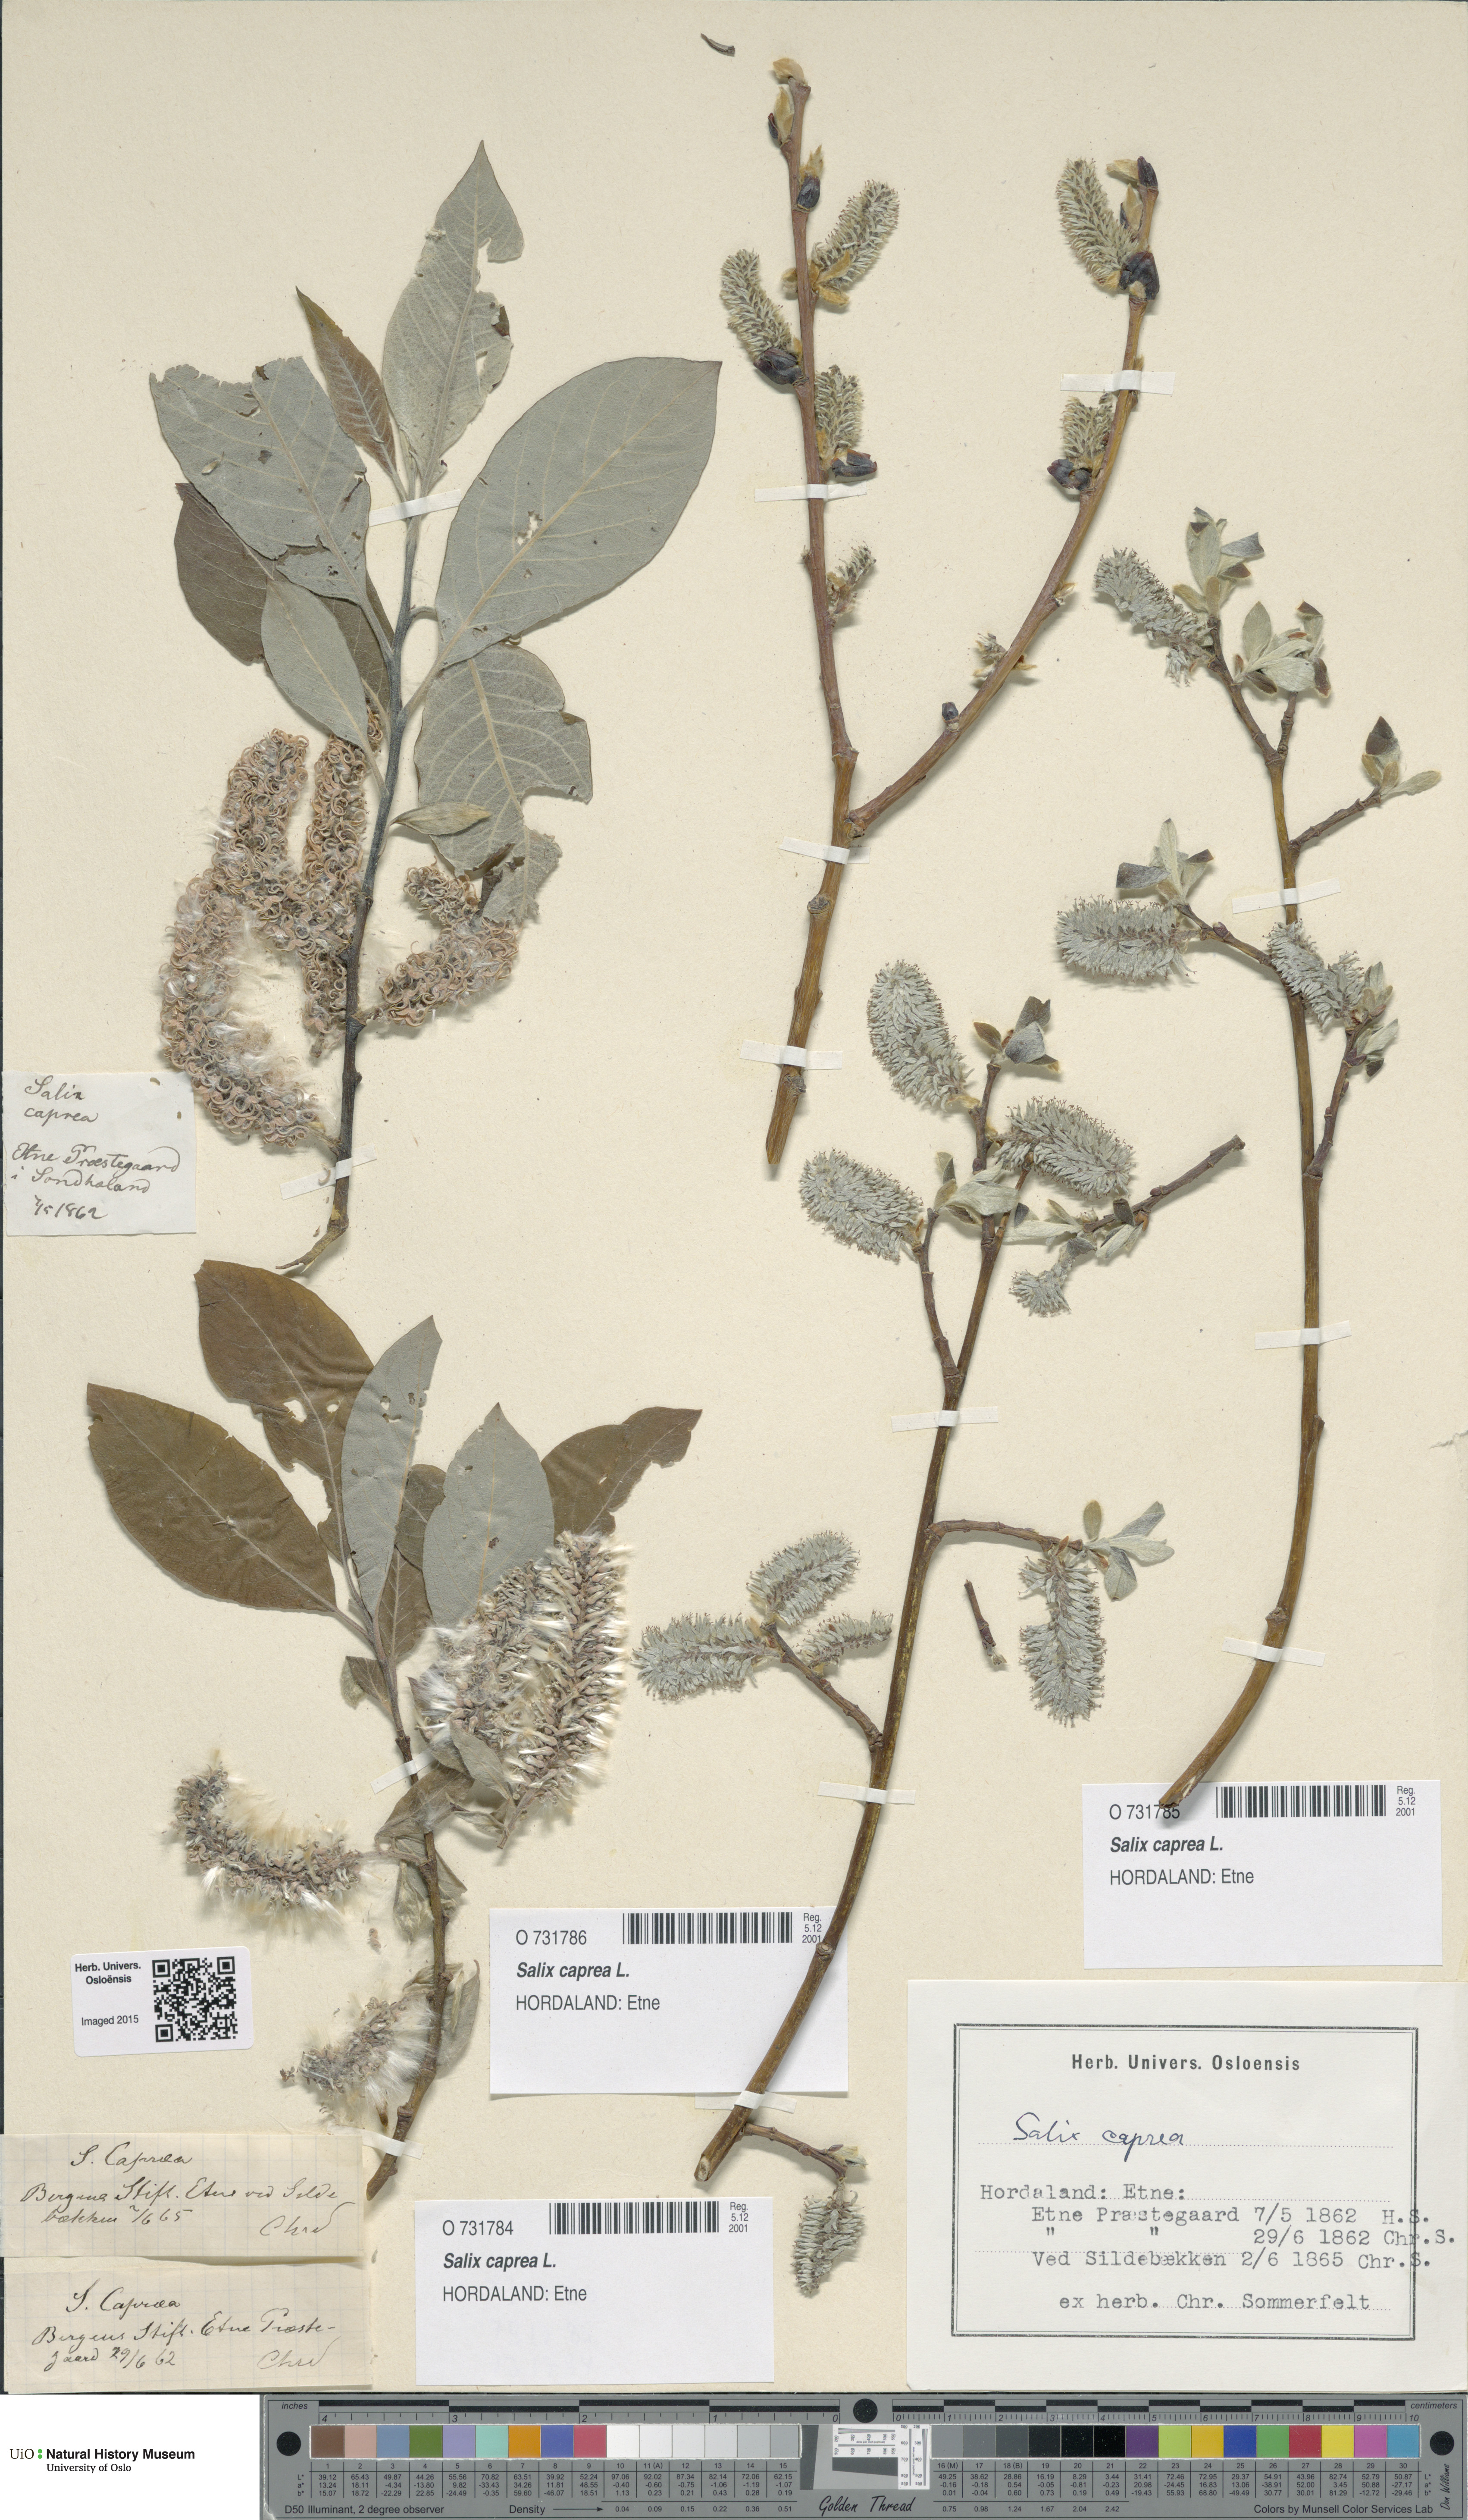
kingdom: Plantae
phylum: Tracheophyta
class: Magnoliopsida
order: Malpighiales
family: Salicaceae
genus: Salix
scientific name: Salix caprea
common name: Goat willow
